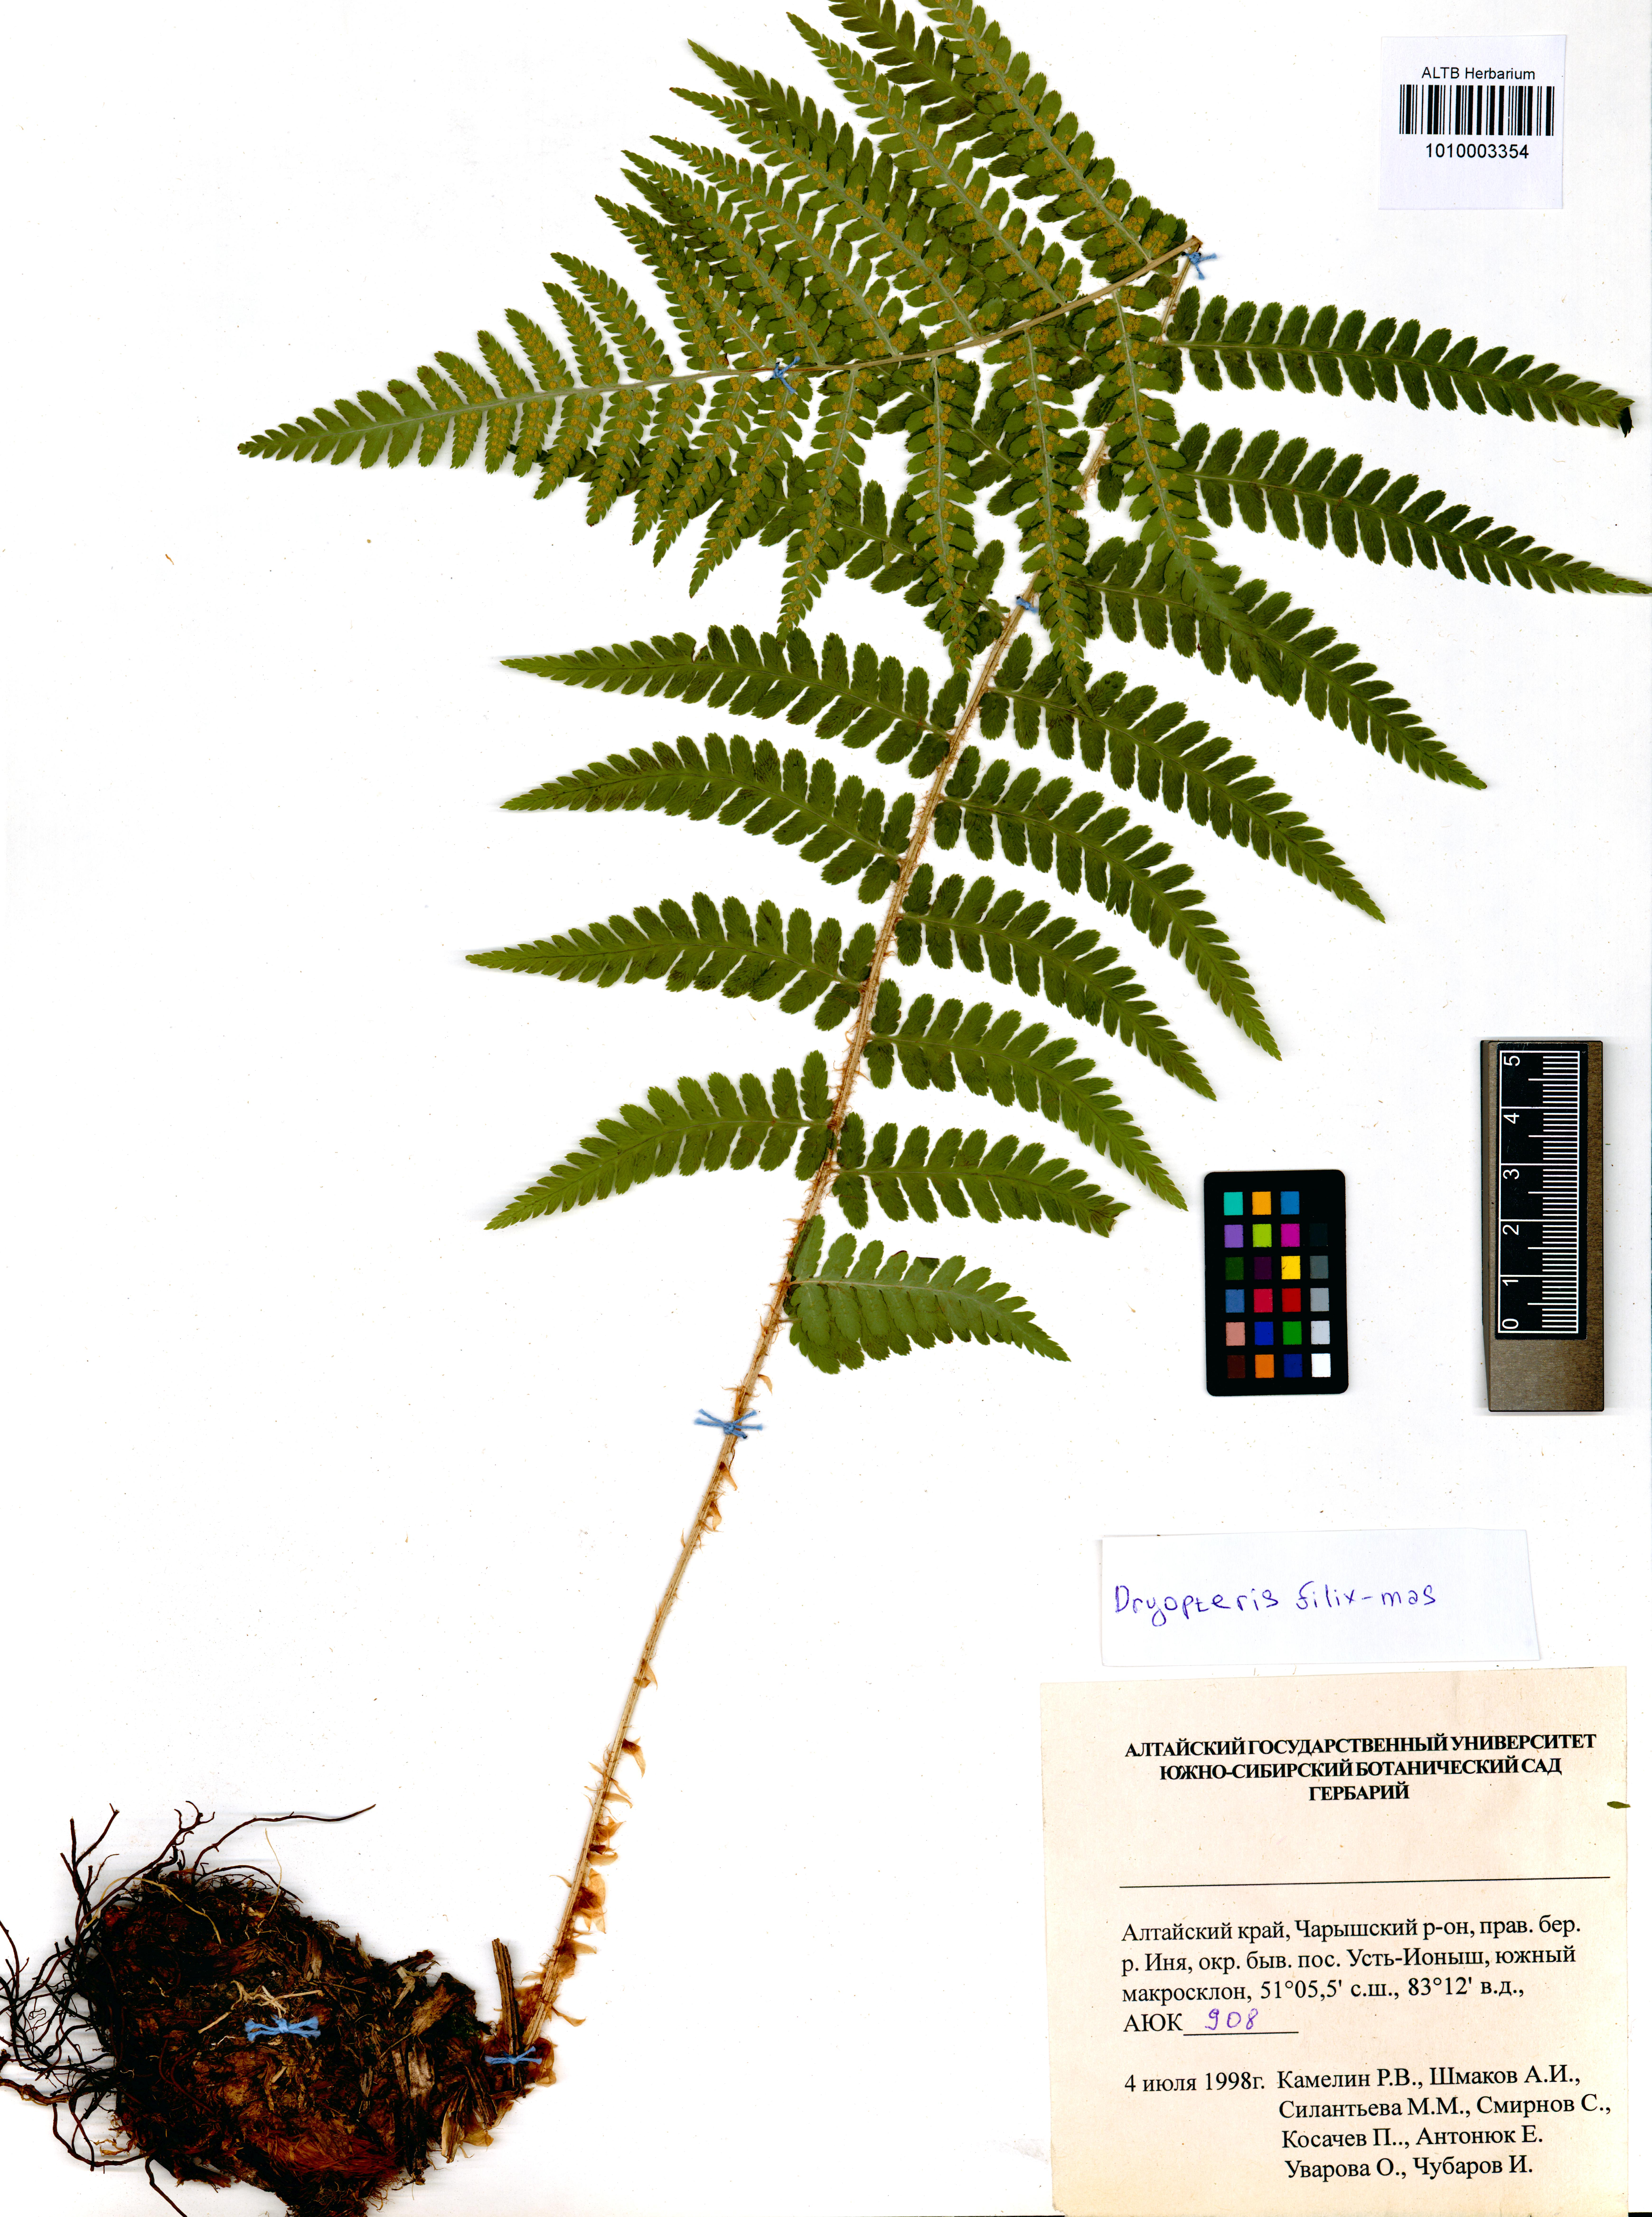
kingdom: Plantae
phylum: Tracheophyta
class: Polypodiopsida
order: Polypodiales
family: Dryopteridaceae
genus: Dryopteris
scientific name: Dryopteris filix-mas
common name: Male fern
